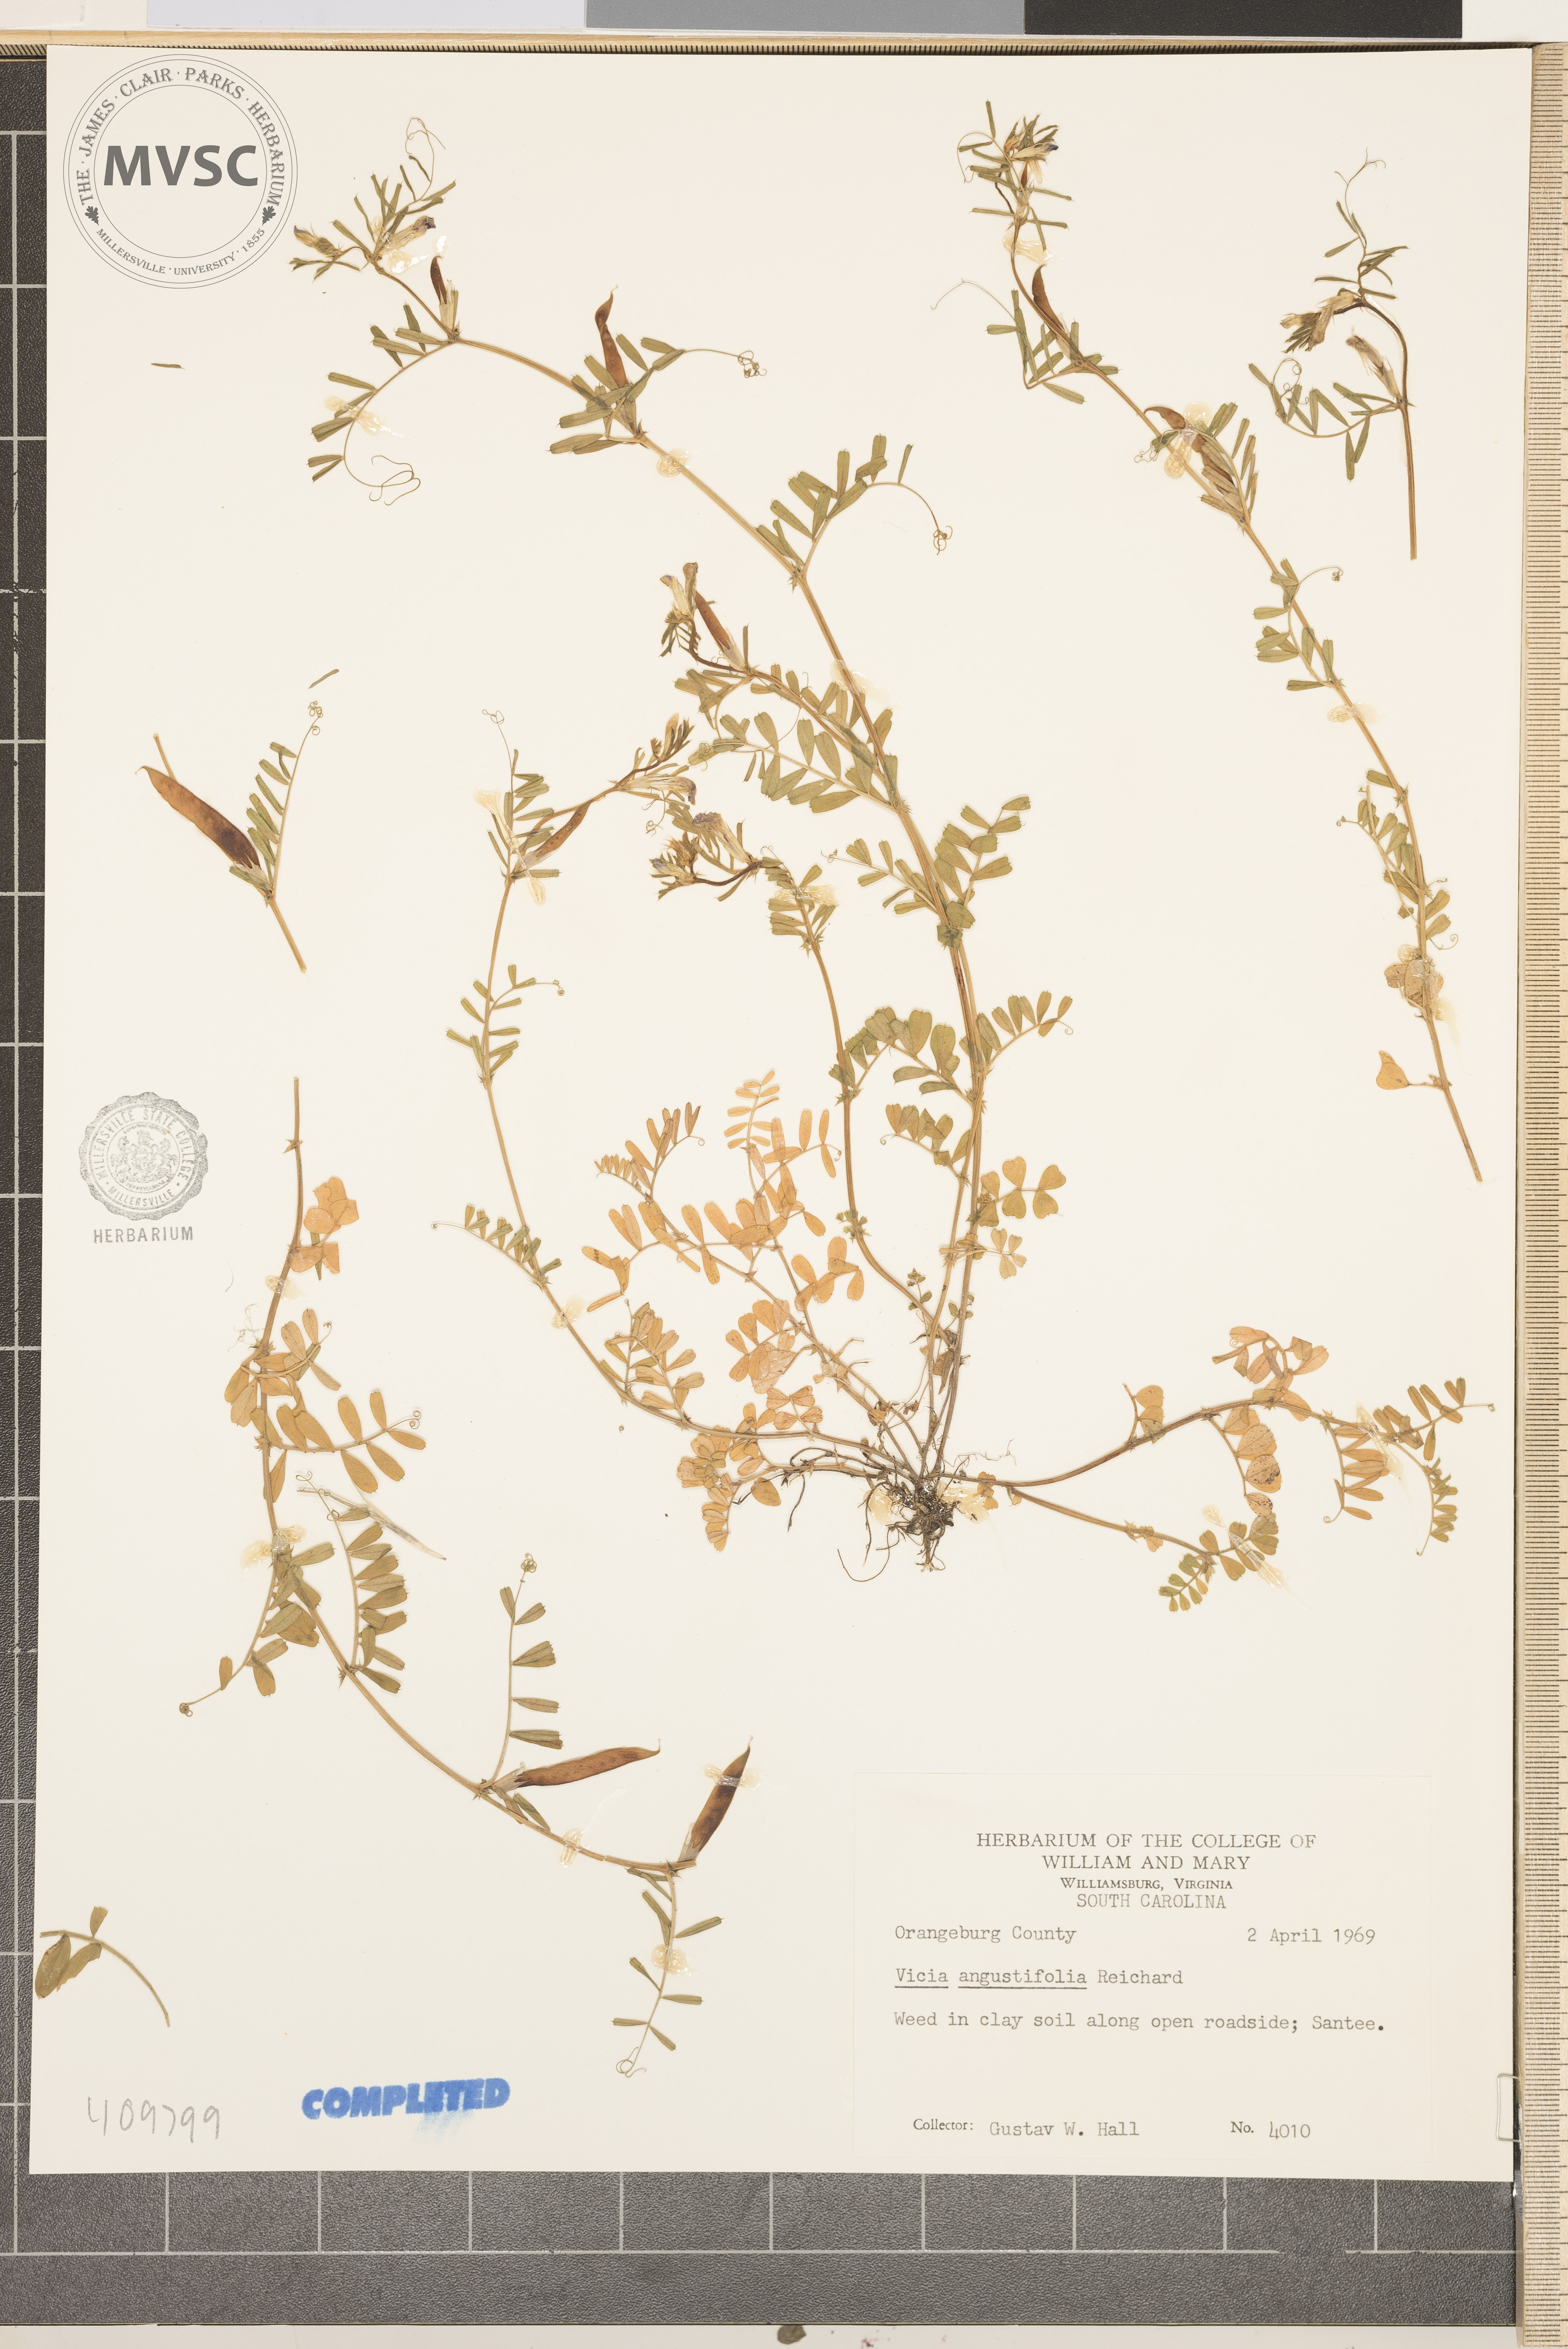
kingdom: Plantae
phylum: Tracheophyta
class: Magnoliopsida
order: Fabales
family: Fabaceae
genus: Vicia
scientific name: Vicia
